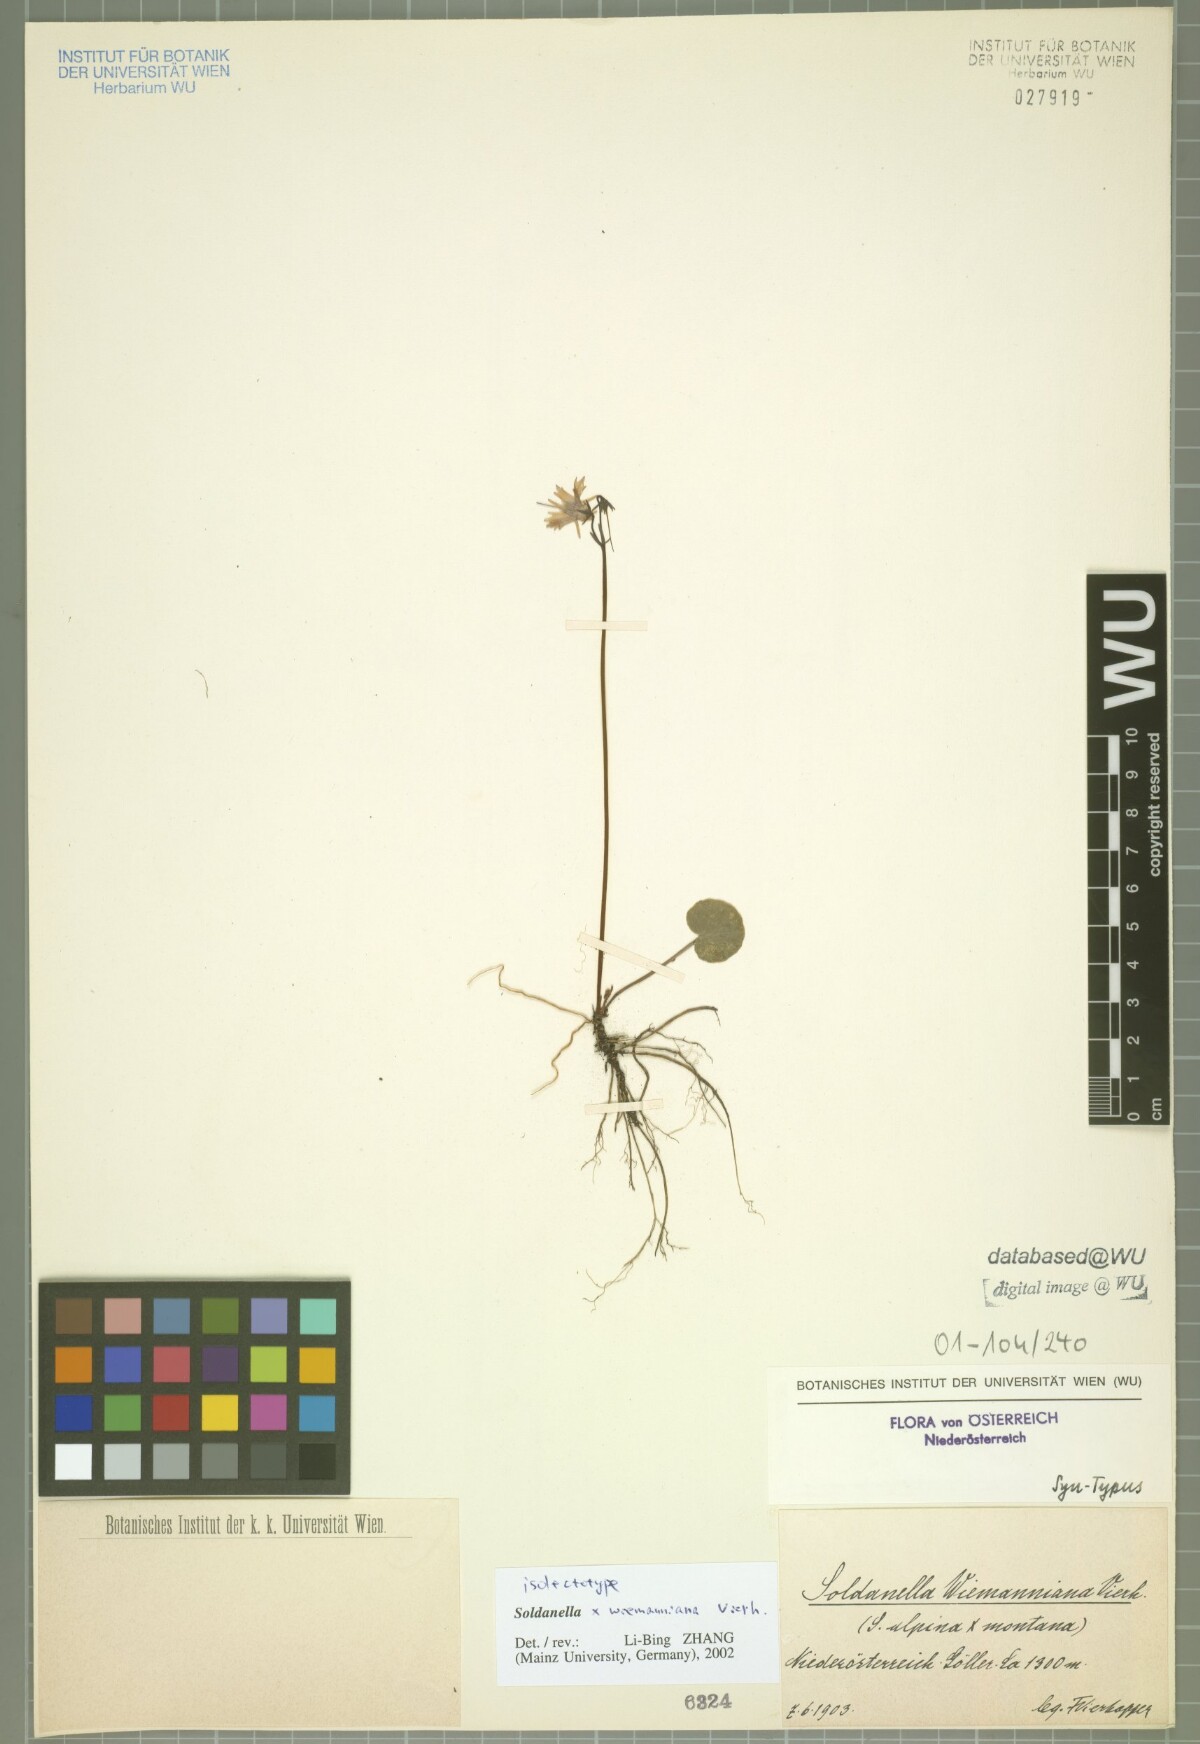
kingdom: Plantae
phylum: Tracheophyta
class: Magnoliopsida
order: Ericales
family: Primulaceae
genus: Soldanella
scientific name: Soldanella wiemanniana
